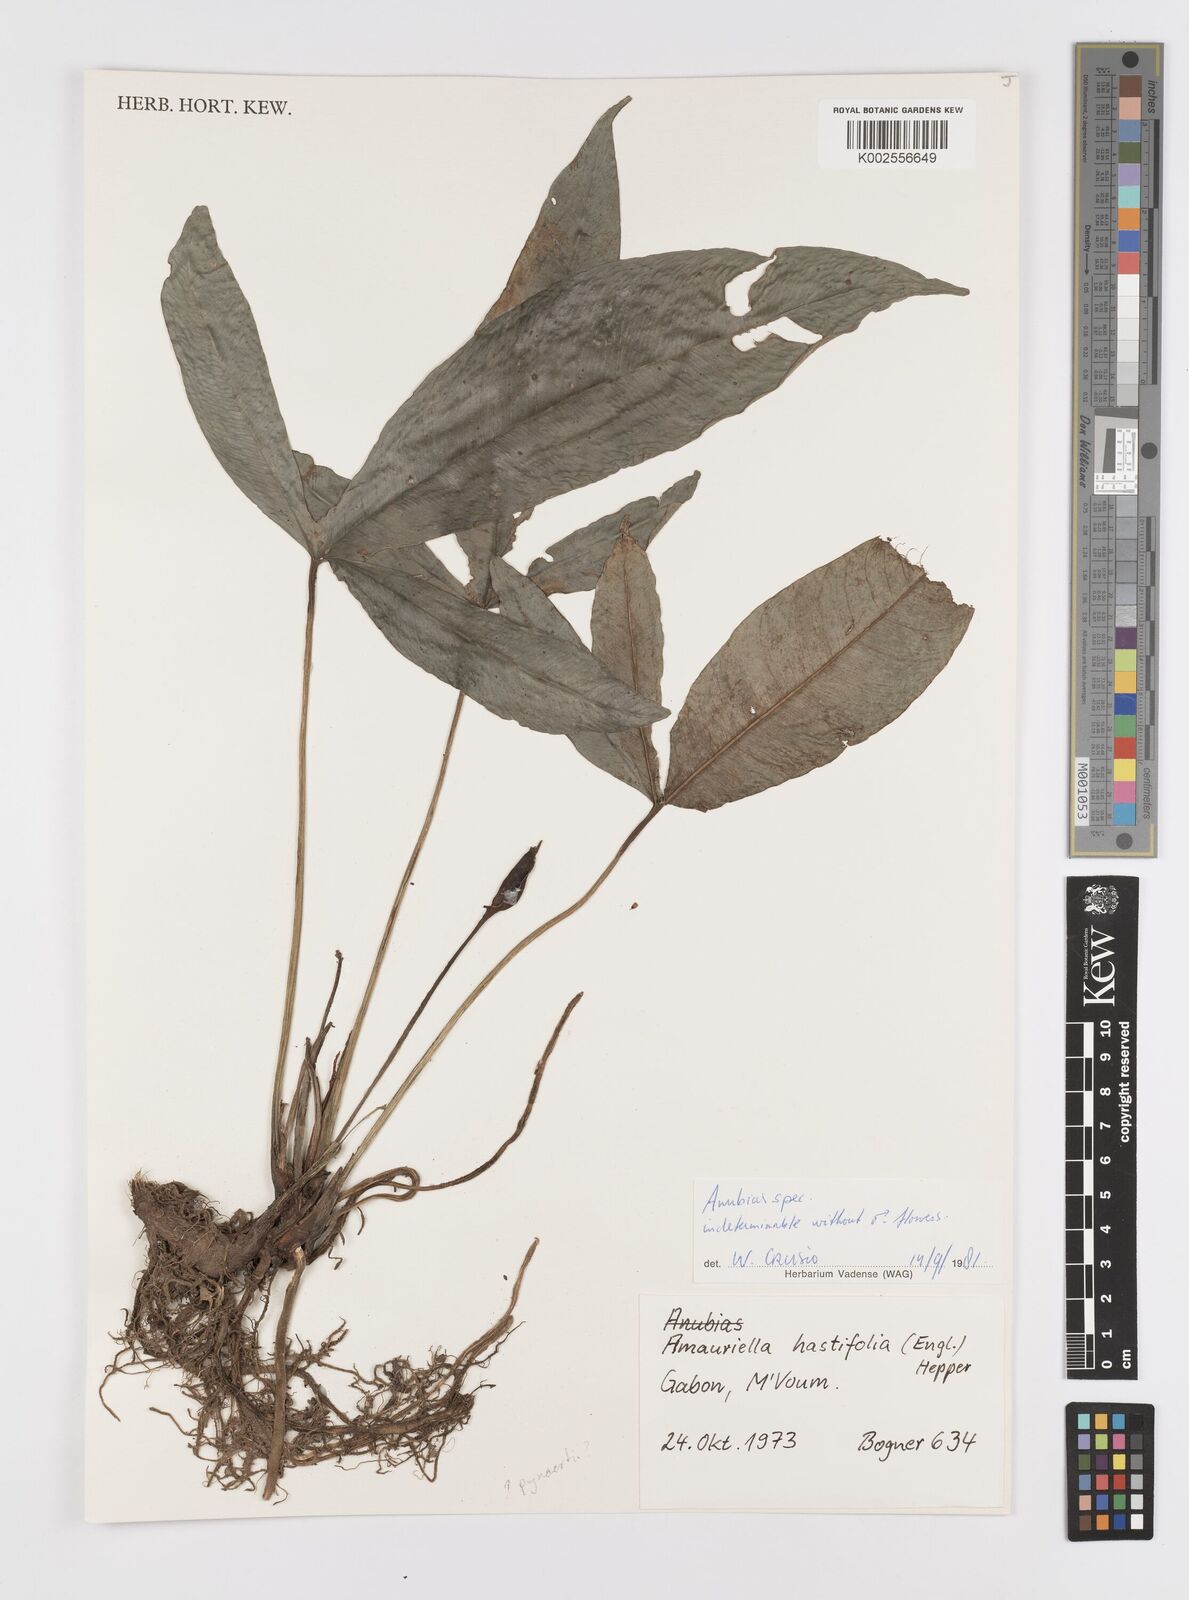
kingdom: Plantae
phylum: Tracheophyta
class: Liliopsida
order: Alismatales
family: Araceae
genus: Anubias
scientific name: Anubias
